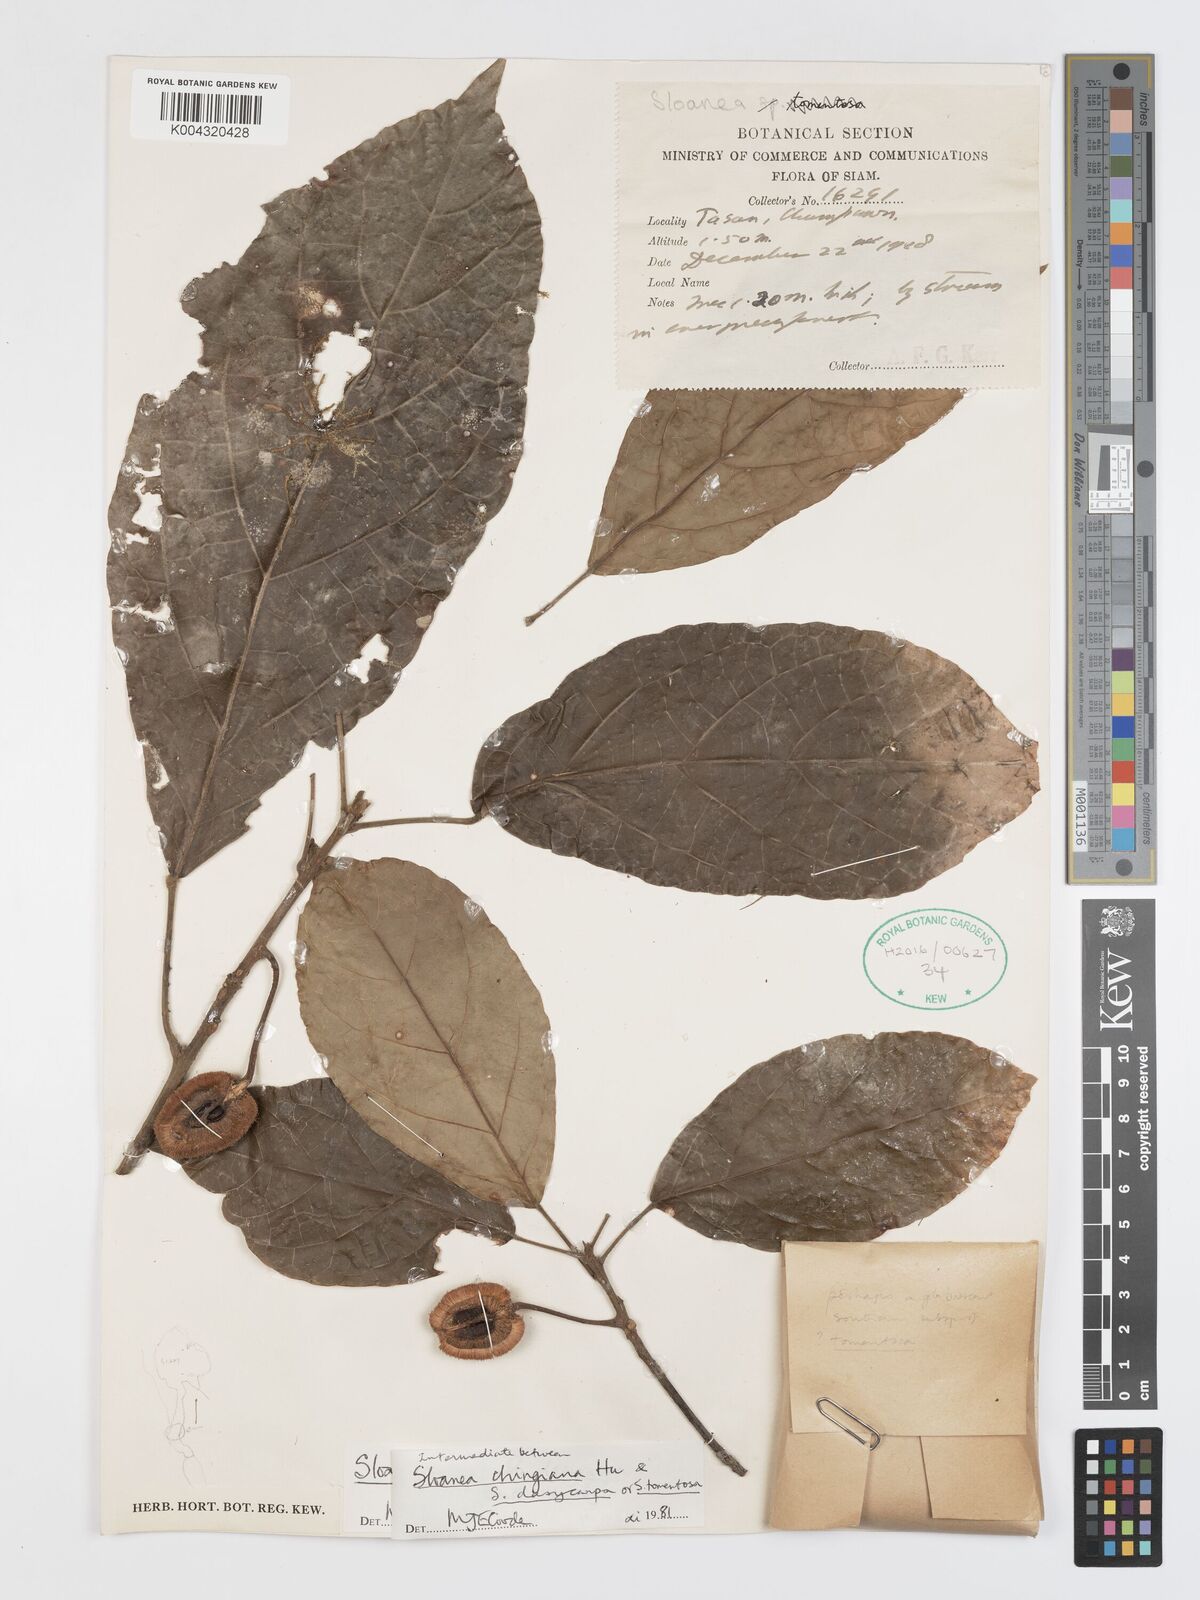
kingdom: Plantae
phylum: Tracheophyta
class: Magnoliopsida
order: Oxalidales
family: Elaeocarpaceae
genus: Sloanea
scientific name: Sloanea chingiana
